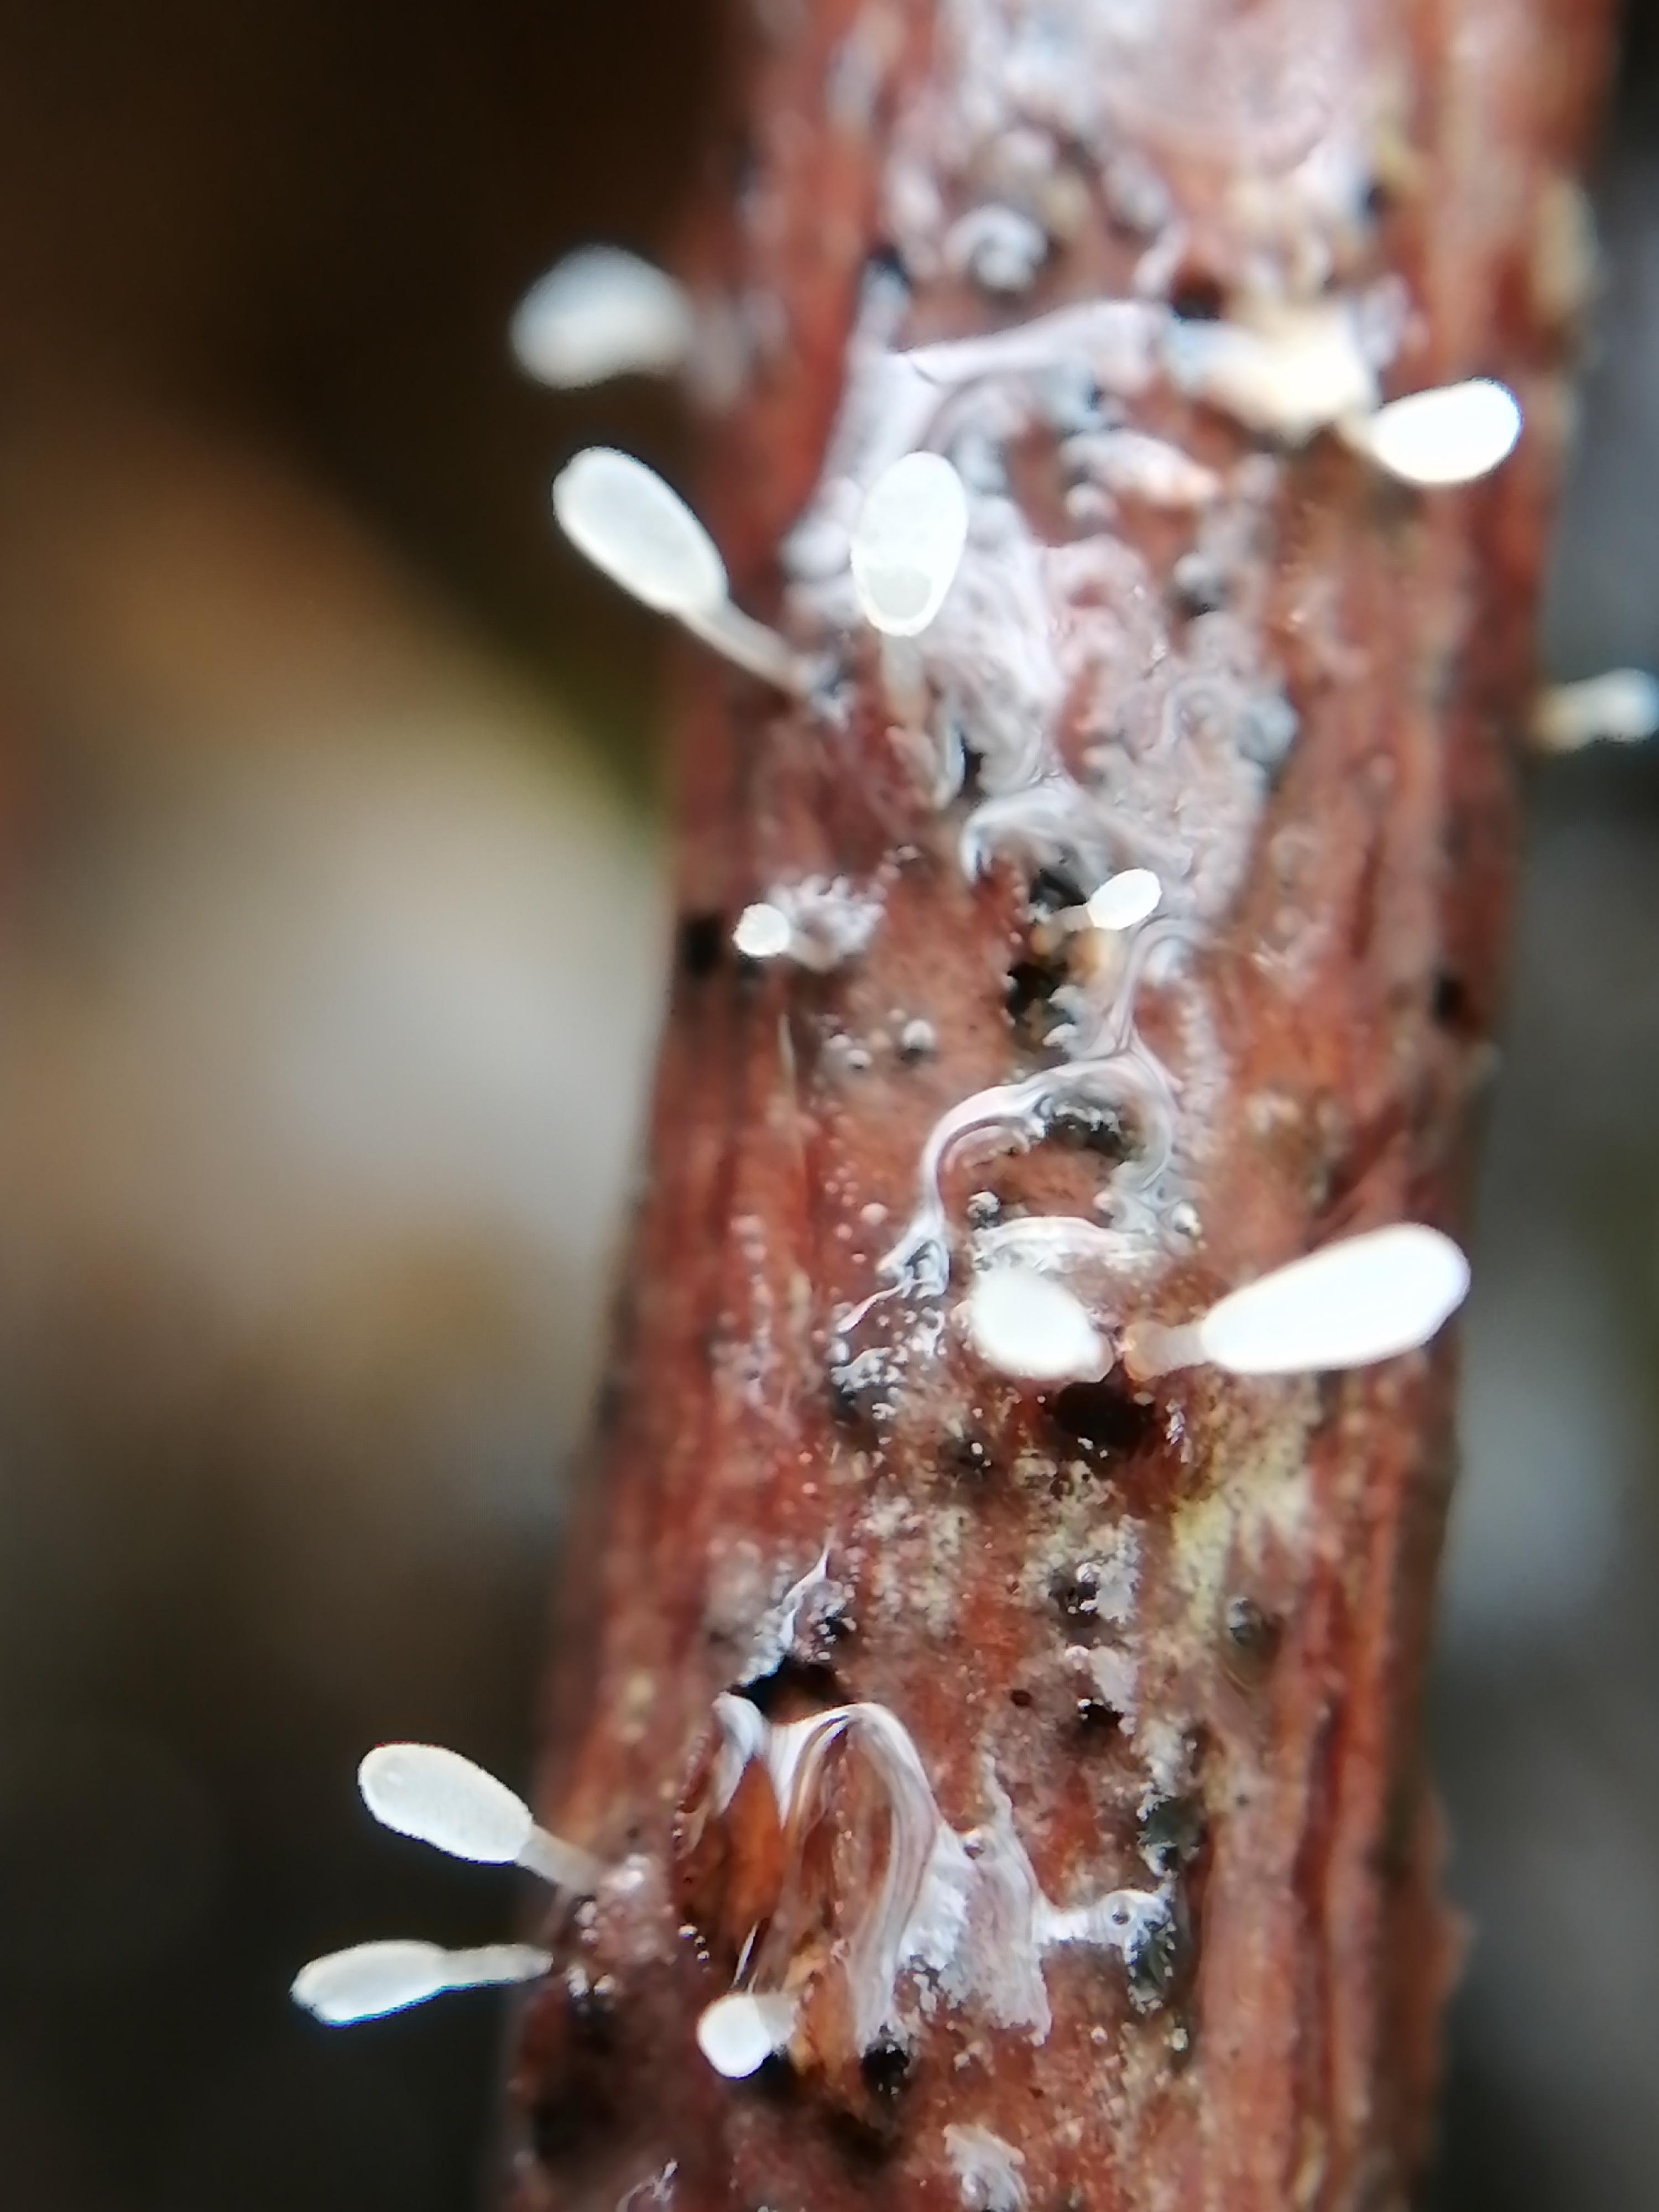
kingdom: Fungi
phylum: Basidiomycota
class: Agaricomycetes
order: Agaricales
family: Typhulaceae
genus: Typhula
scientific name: Typhula spathulata
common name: aske-trådkølle
